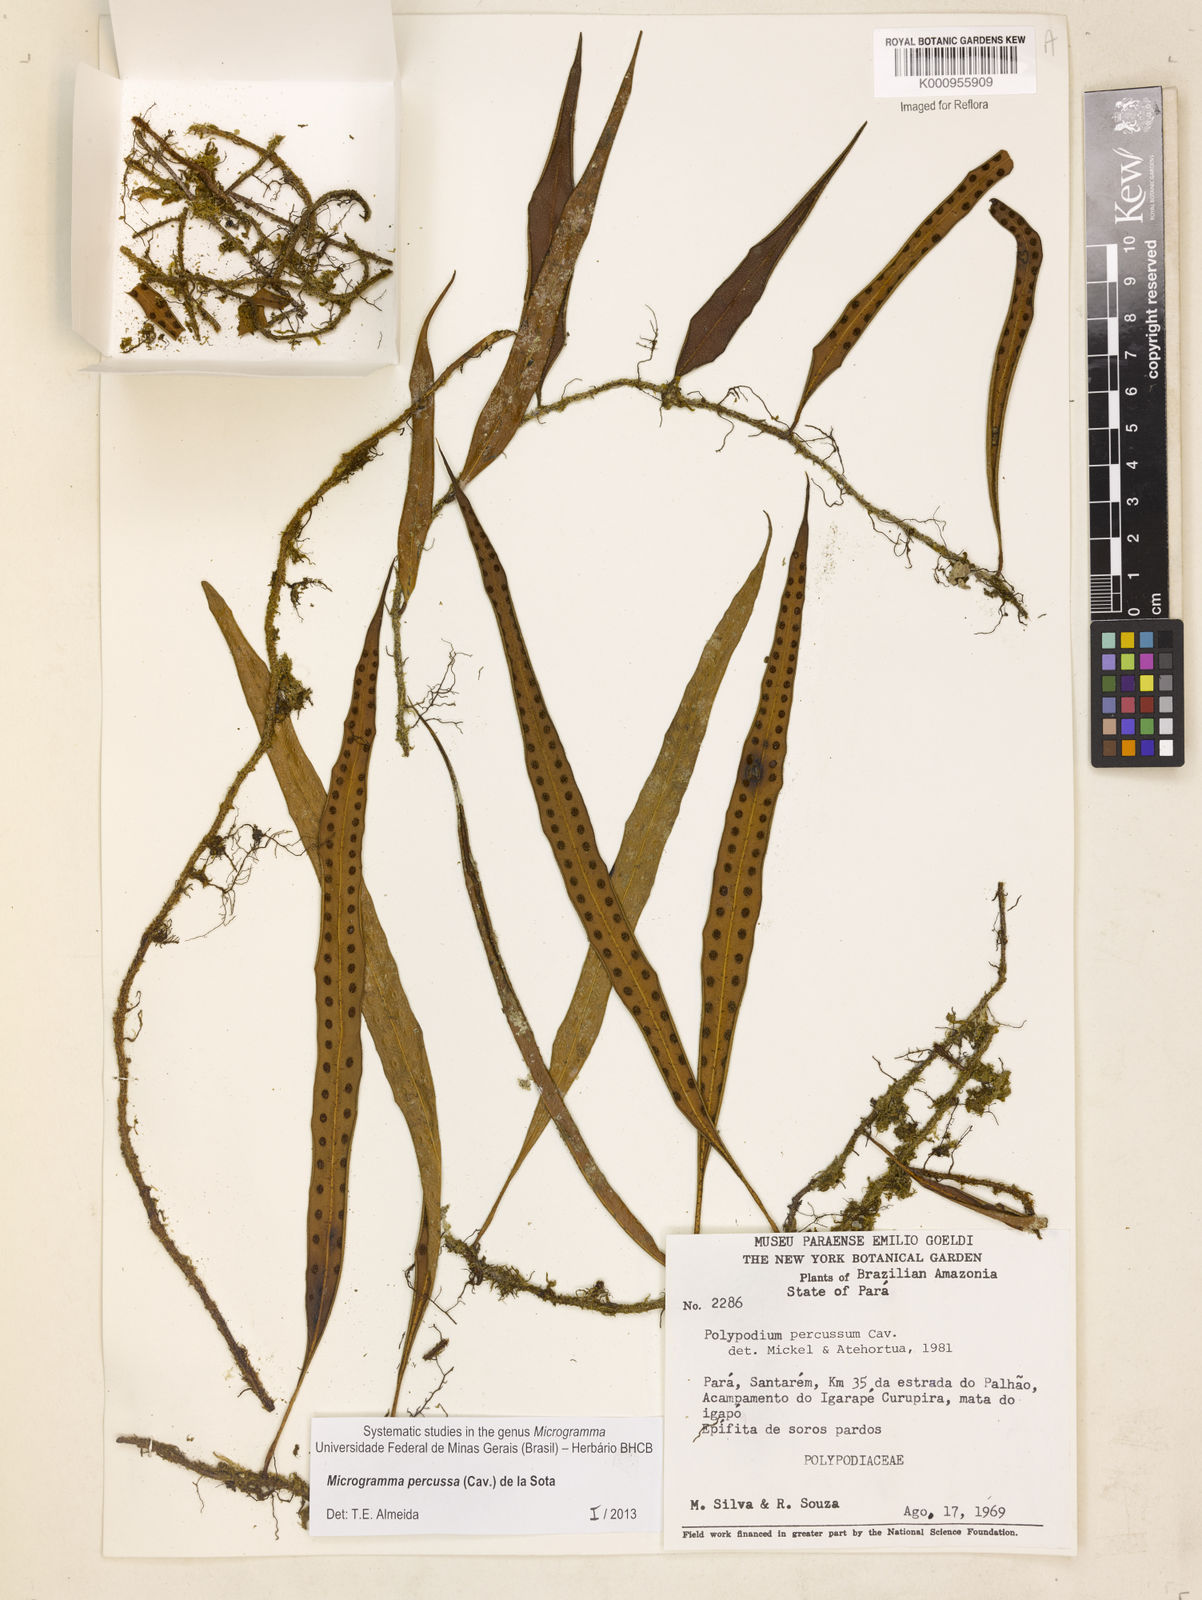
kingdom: Plantae
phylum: Tracheophyta
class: Polypodiopsida
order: Polypodiales
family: Polypodiaceae
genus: Microgramma
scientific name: Microgramma percussa
